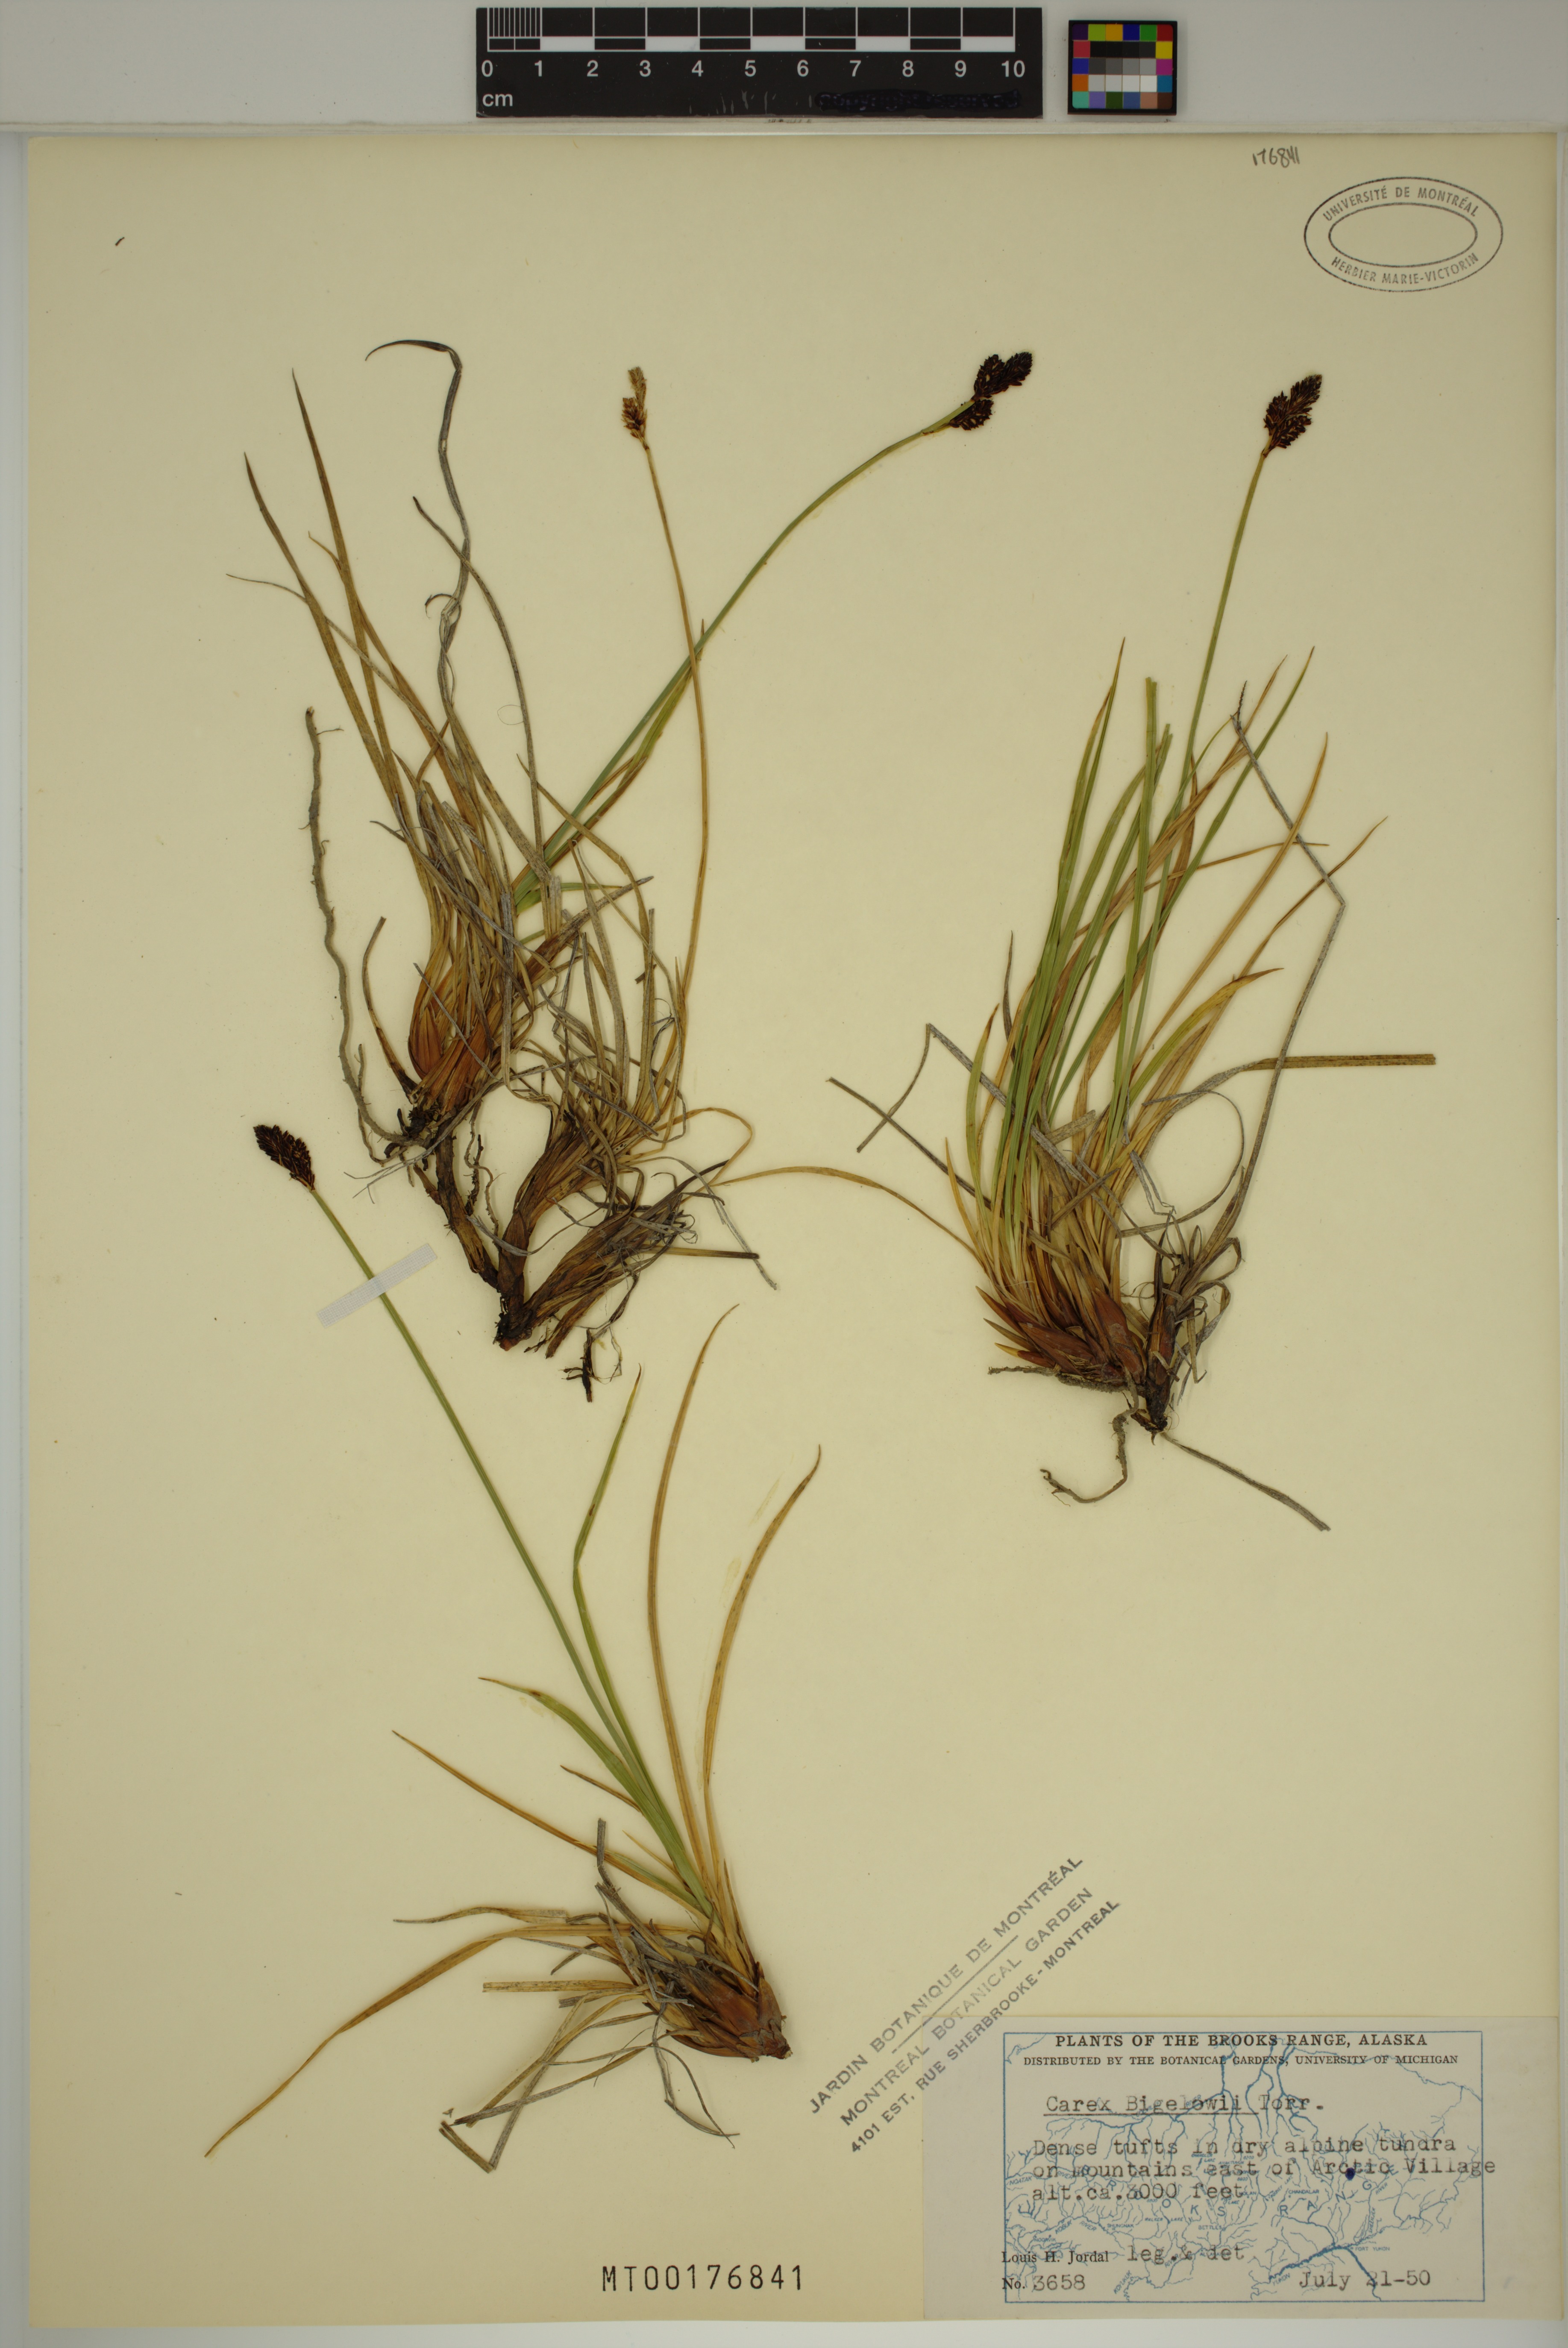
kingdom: Plantae
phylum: Tracheophyta
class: Liliopsida
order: Poales
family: Cyperaceae
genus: Carex
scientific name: Carex bigelowii
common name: Stiff sedge
